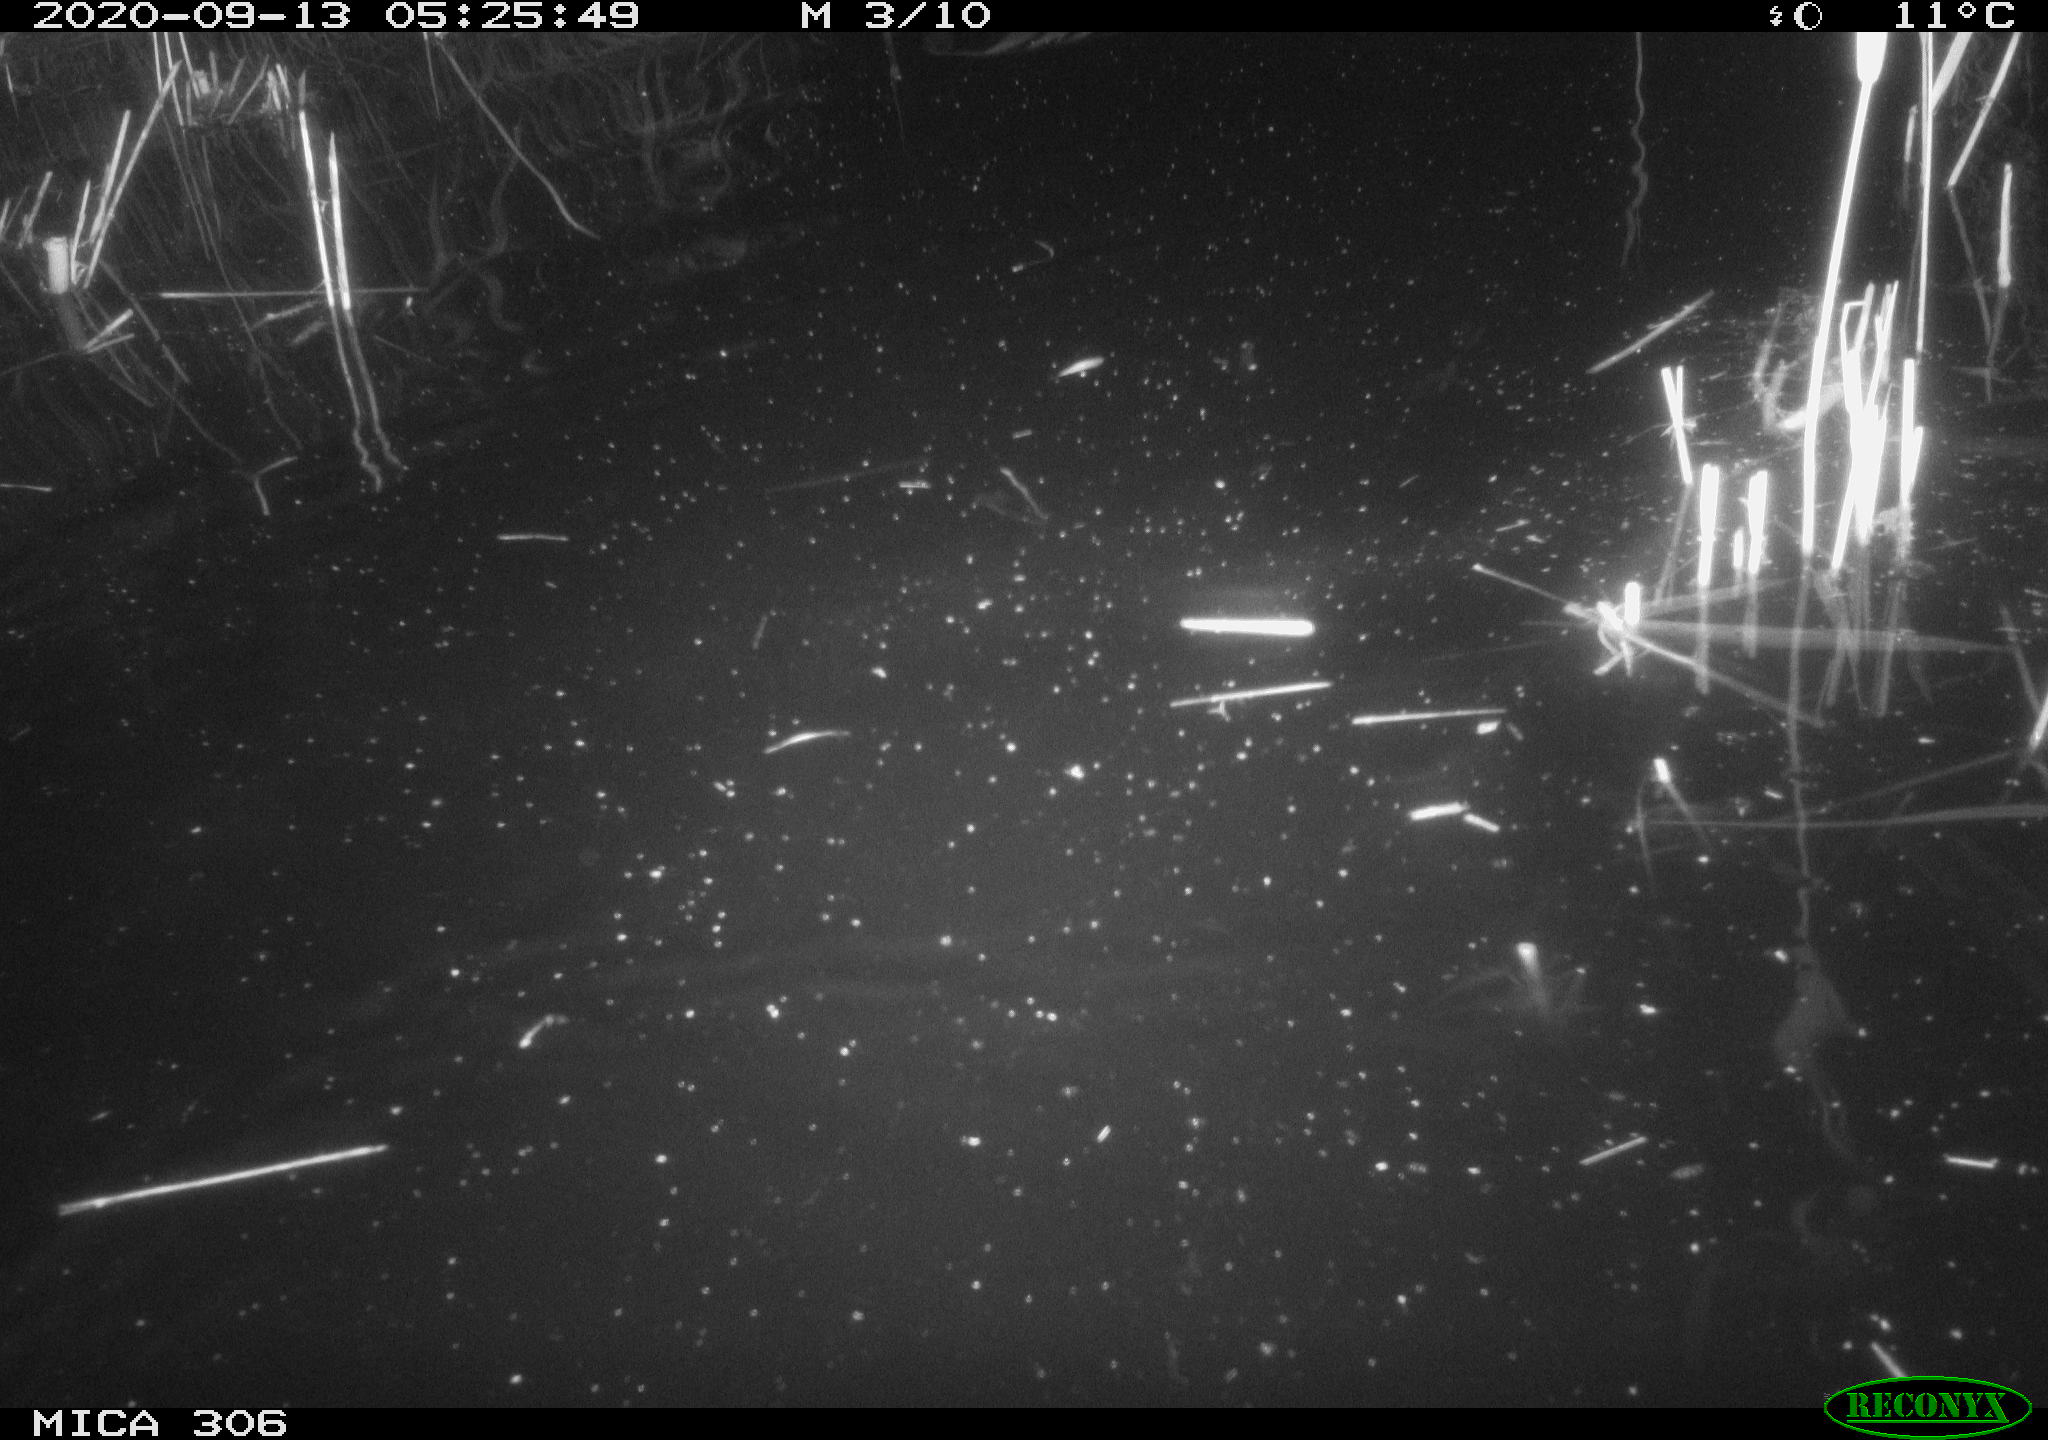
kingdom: Animalia
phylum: Chordata
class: Mammalia
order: Rodentia
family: Cricetidae
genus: Ondatra
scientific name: Ondatra zibethicus
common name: Muskrat
